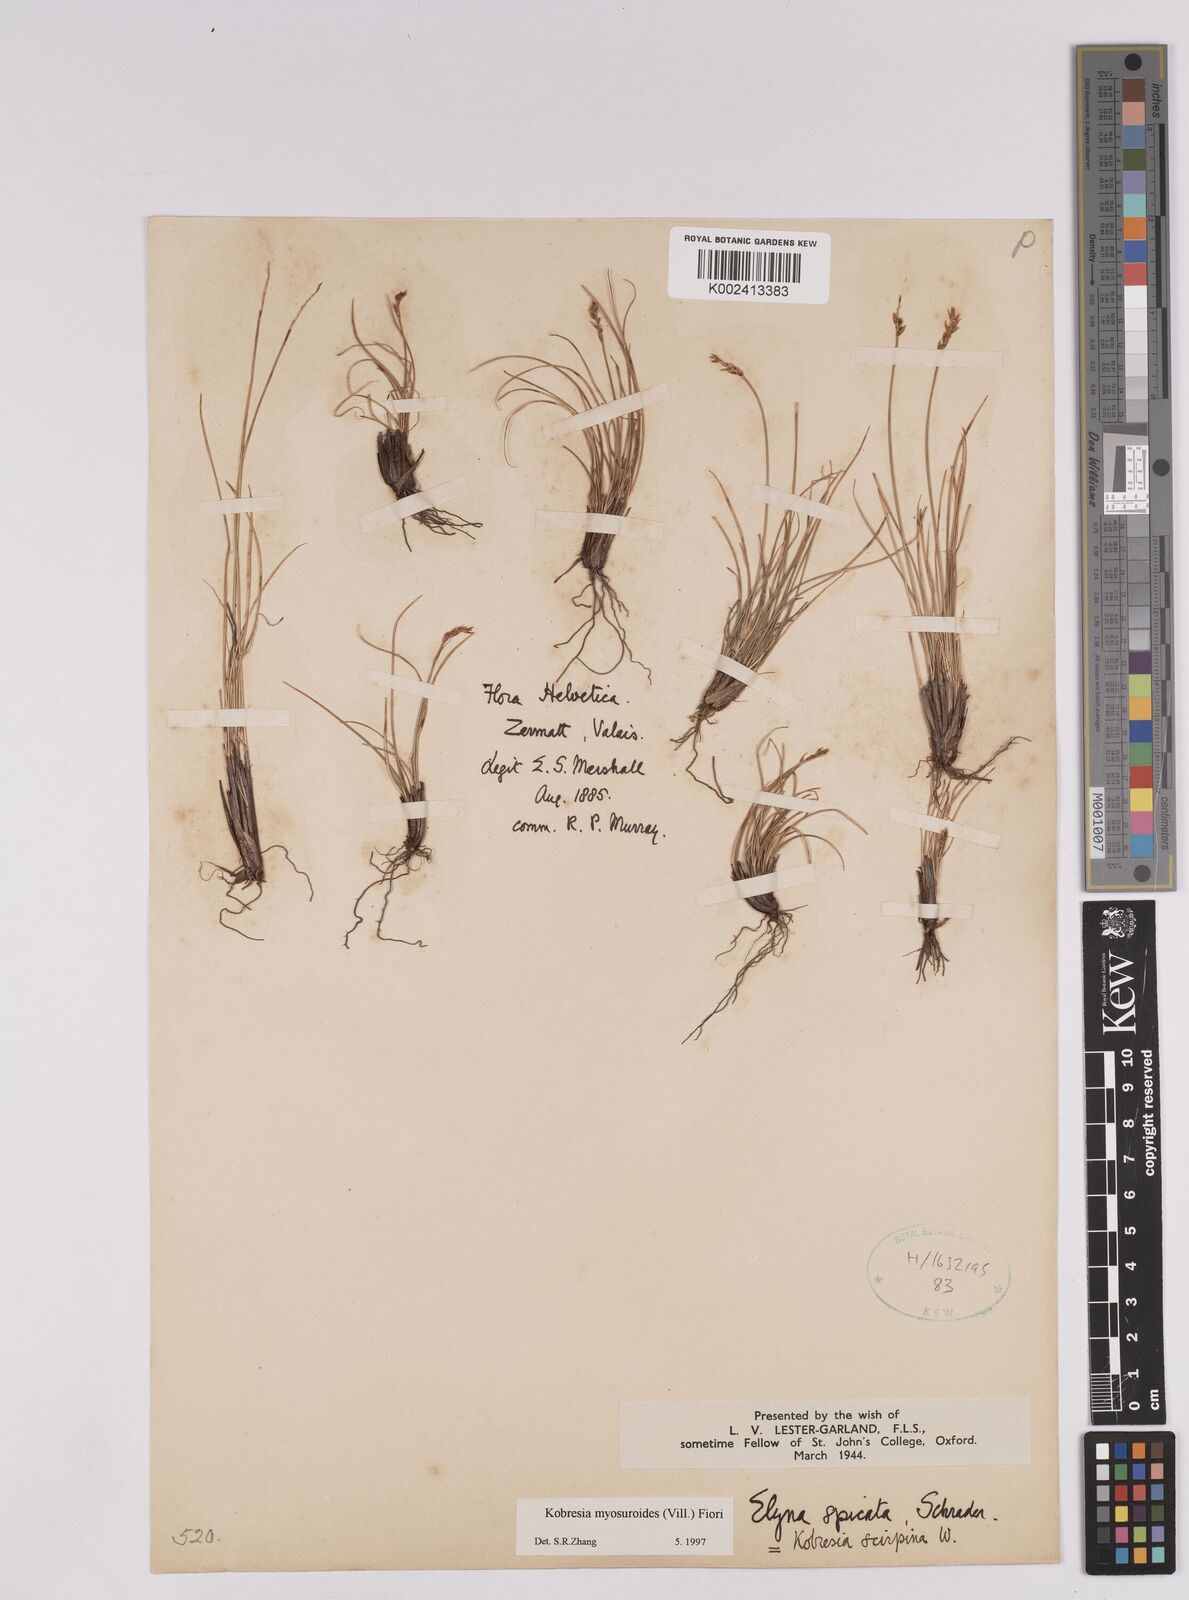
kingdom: Plantae
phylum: Tracheophyta
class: Liliopsida
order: Poales
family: Cyperaceae
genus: Carex
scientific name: Carex myosuroides
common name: Bellard's bog sedge
